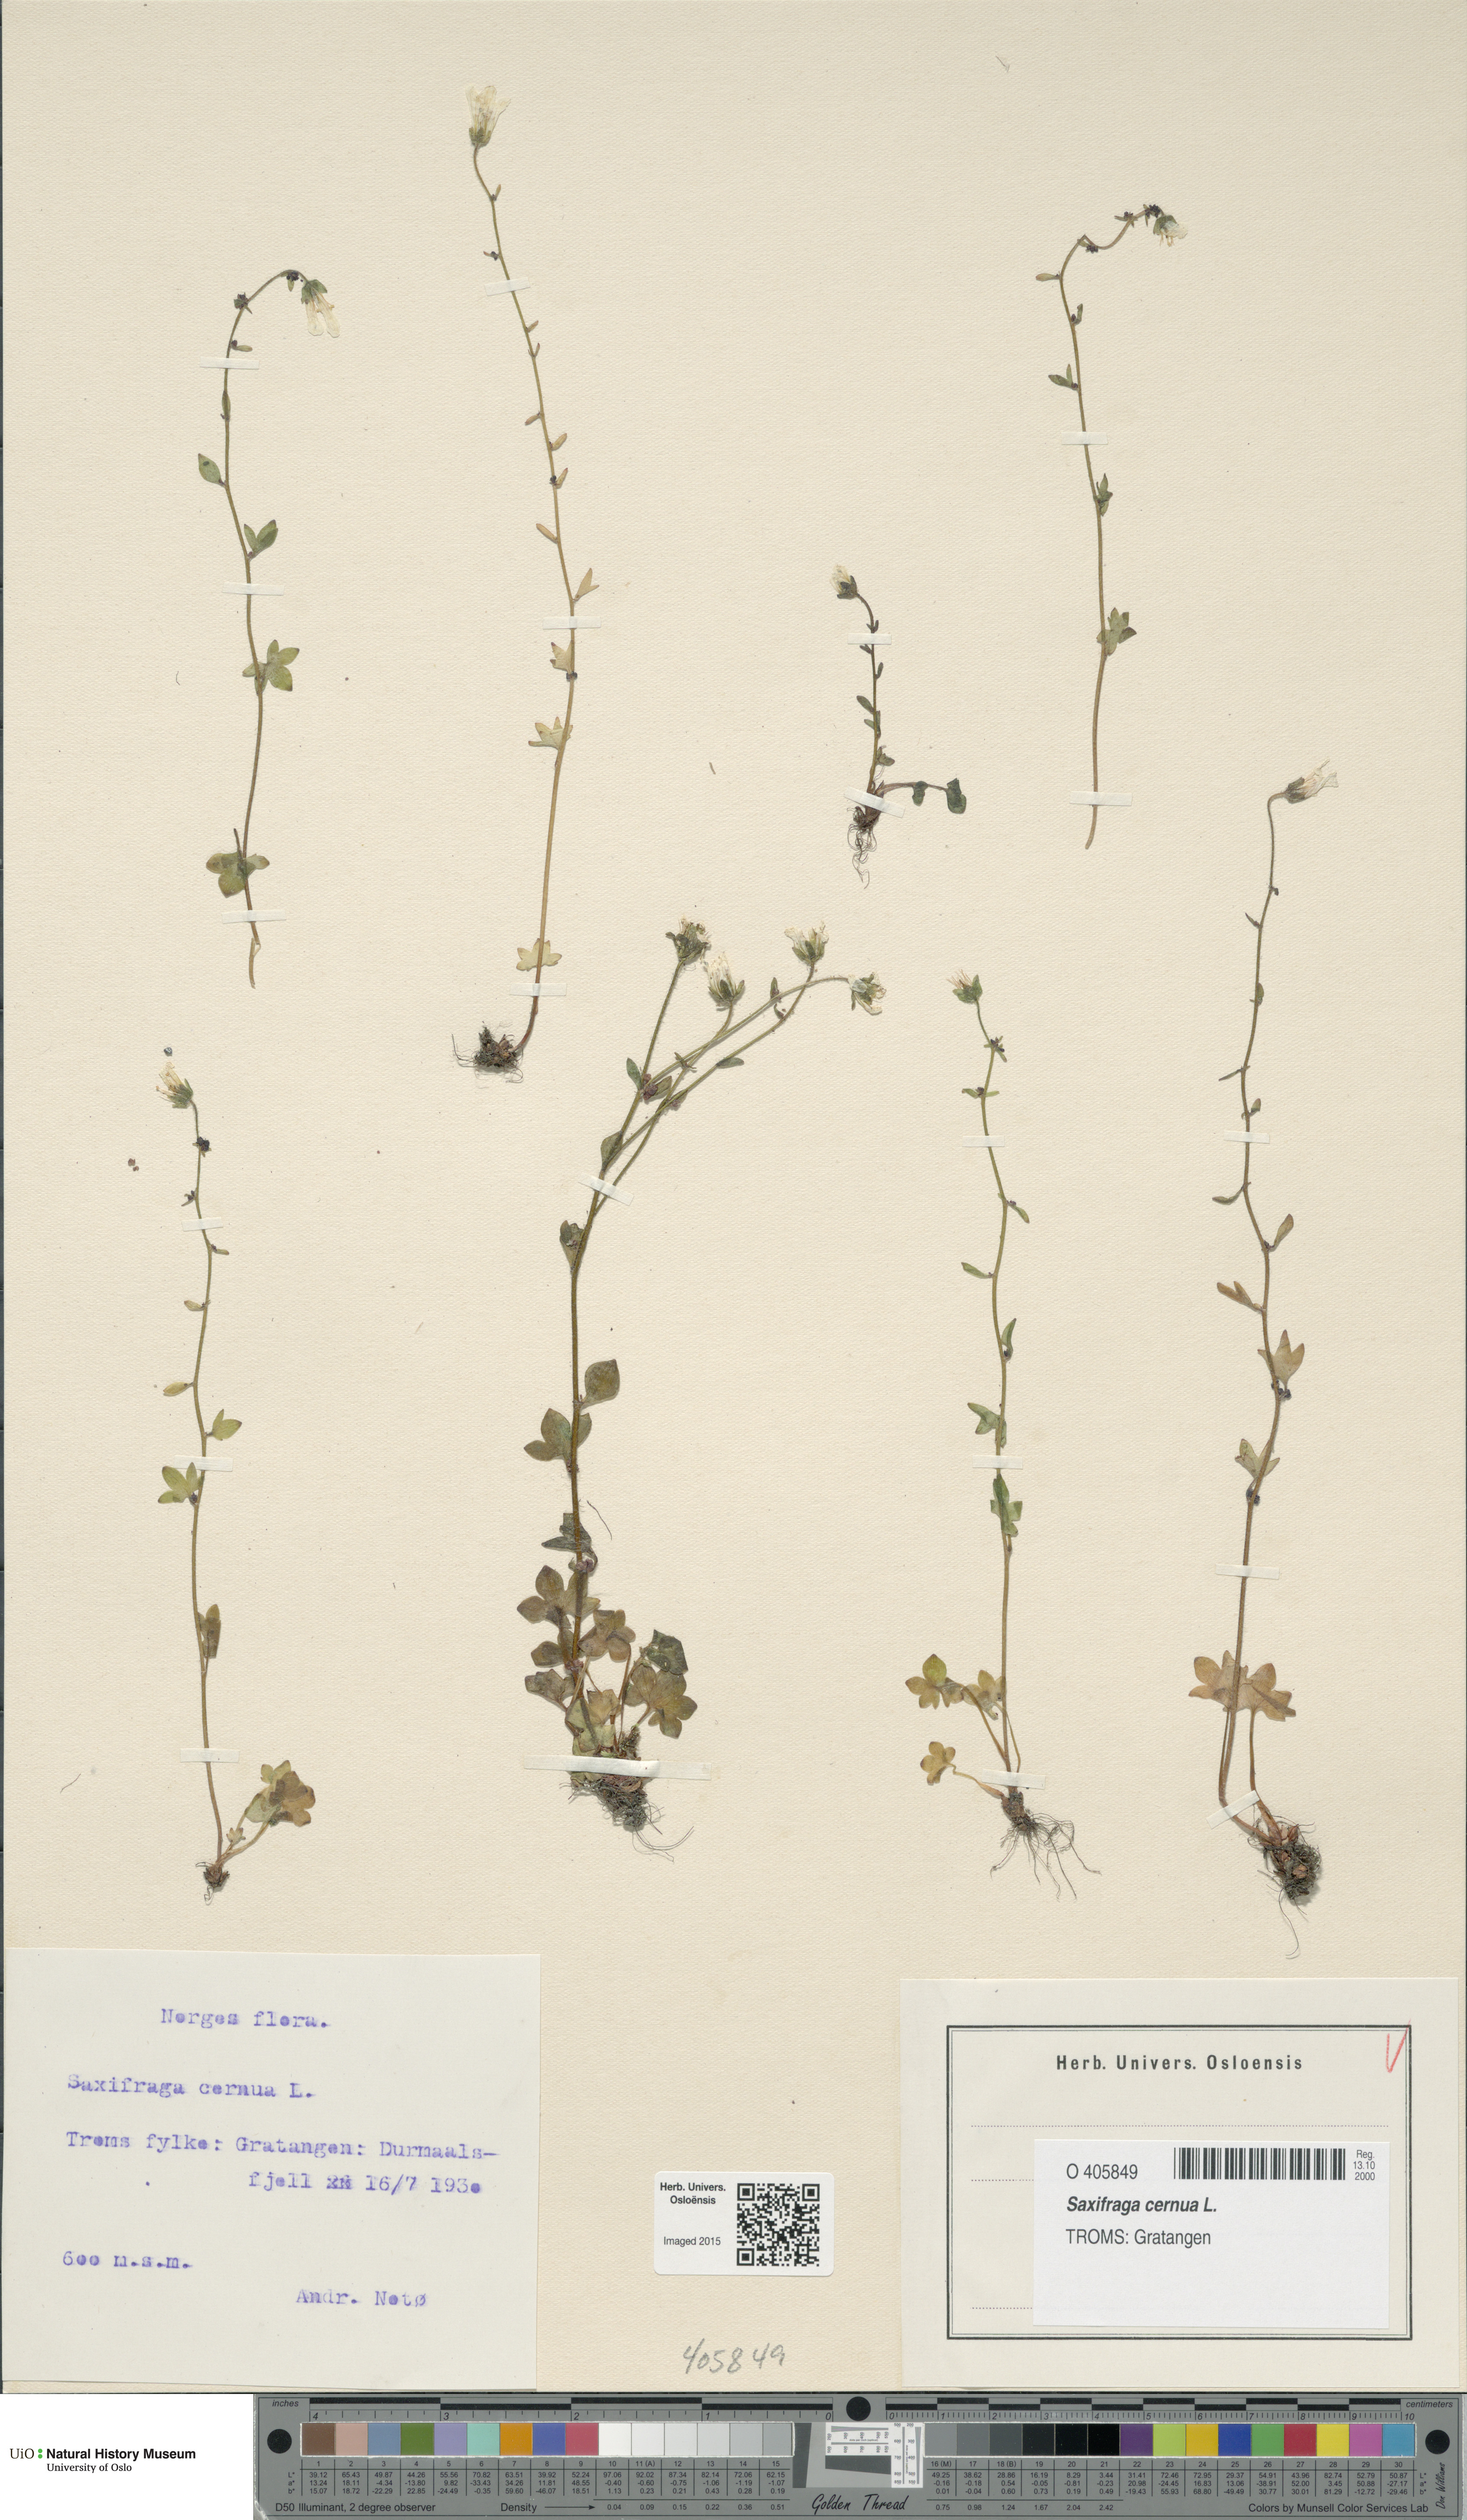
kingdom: Plantae
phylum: Tracheophyta
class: Magnoliopsida
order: Saxifragales
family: Saxifragaceae
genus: Saxifraga
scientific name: Saxifraga cernua
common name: Drooping saxifrage
